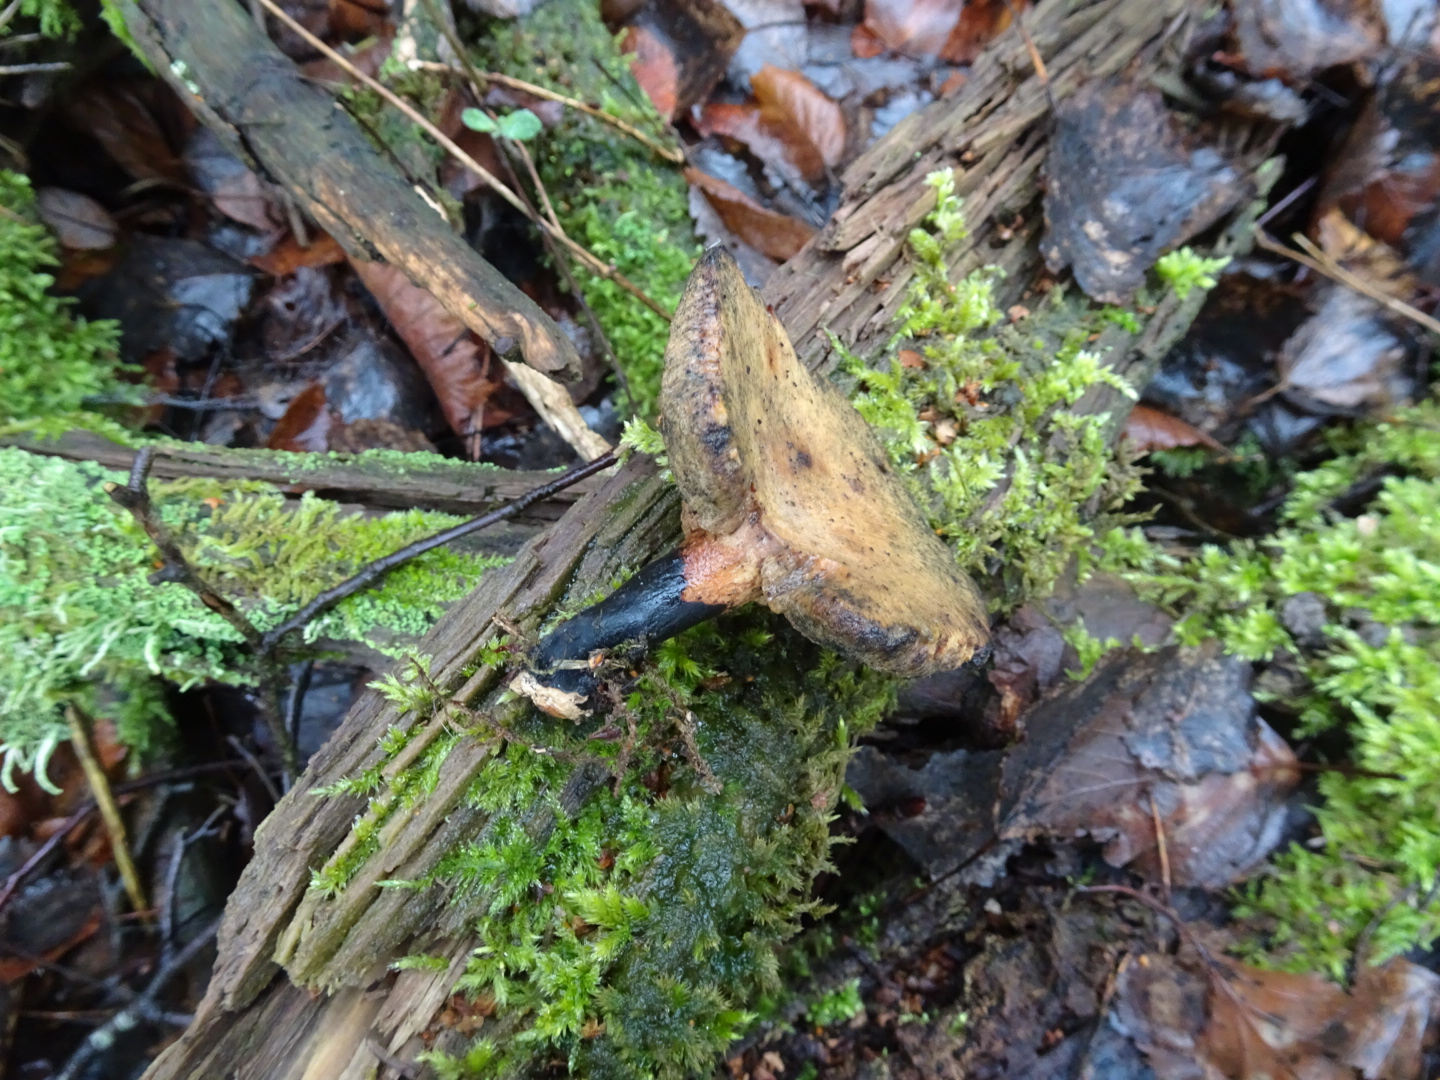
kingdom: Fungi
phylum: Basidiomycota
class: Agaricomycetes
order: Polyporales
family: Polyporaceae
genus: Cerioporus
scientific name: Cerioporus varius
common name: foranderlig stilkporesvamp
